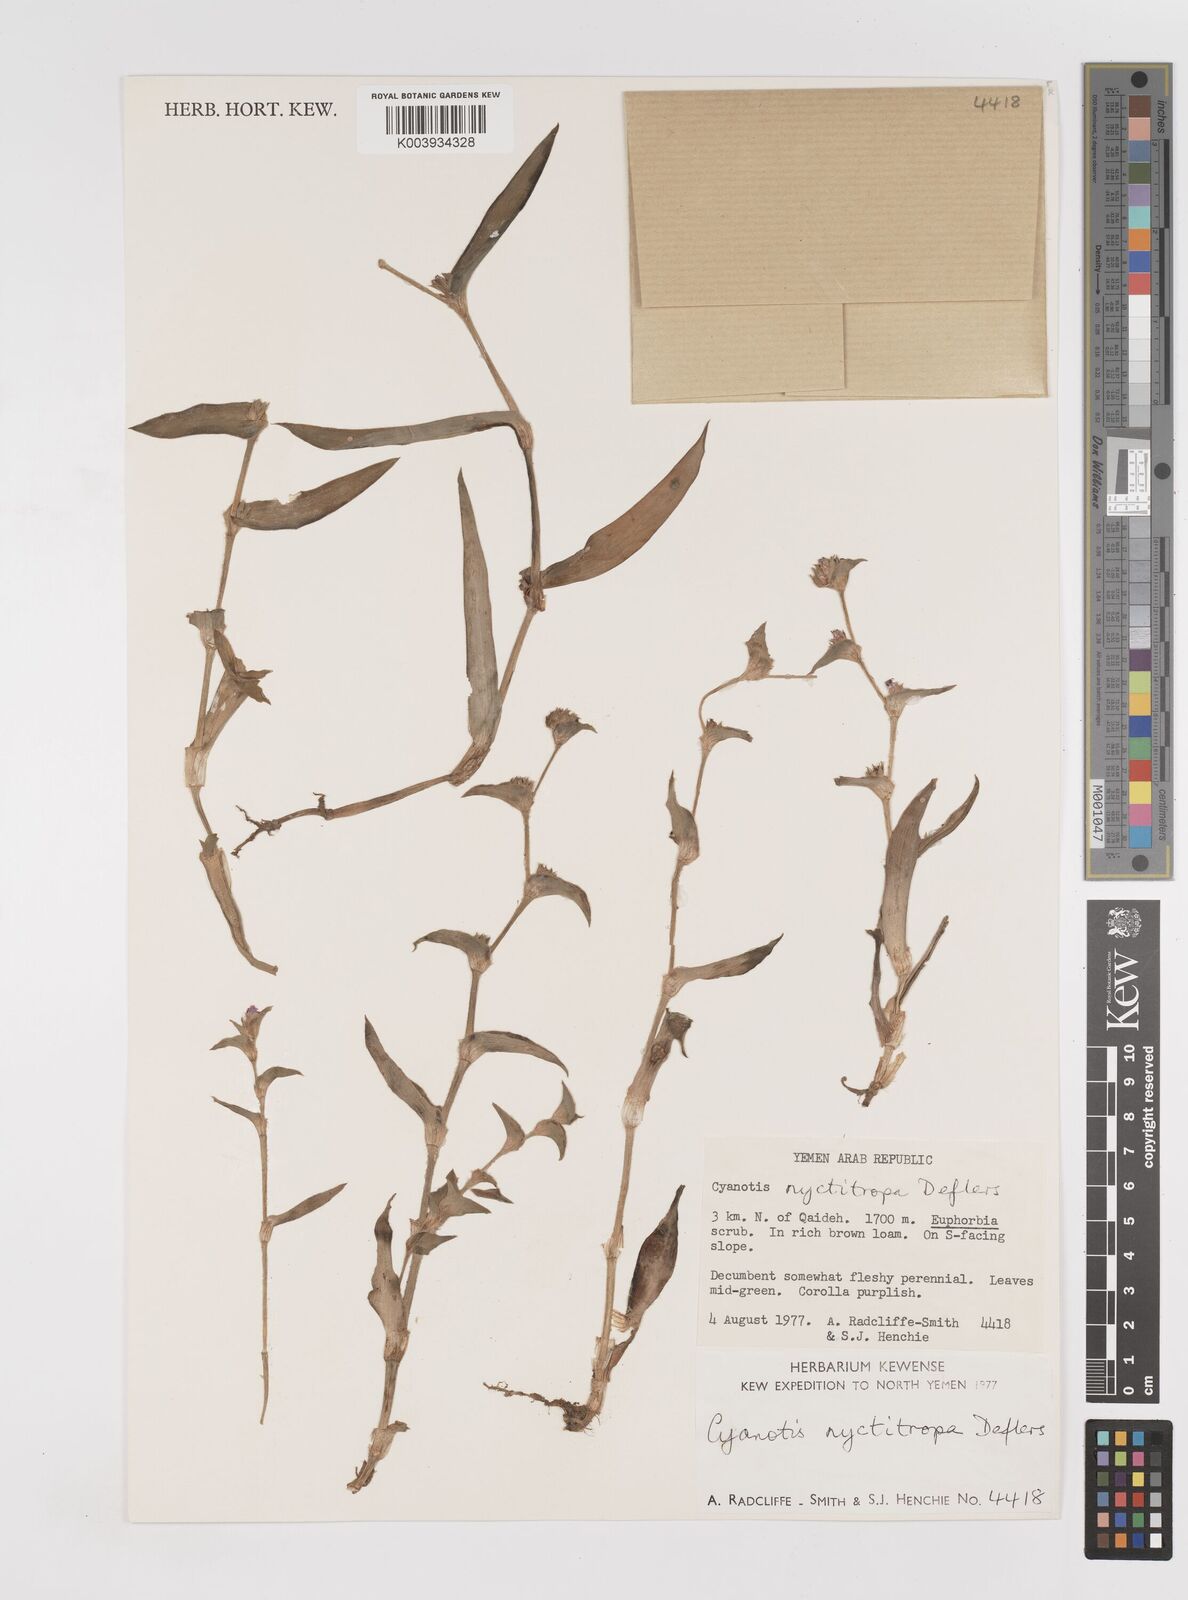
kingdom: Plantae
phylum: Tracheophyta
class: Liliopsida
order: Commelinales
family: Commelinaceae
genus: Cyanotis
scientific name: Cyanotis nyctitropa
